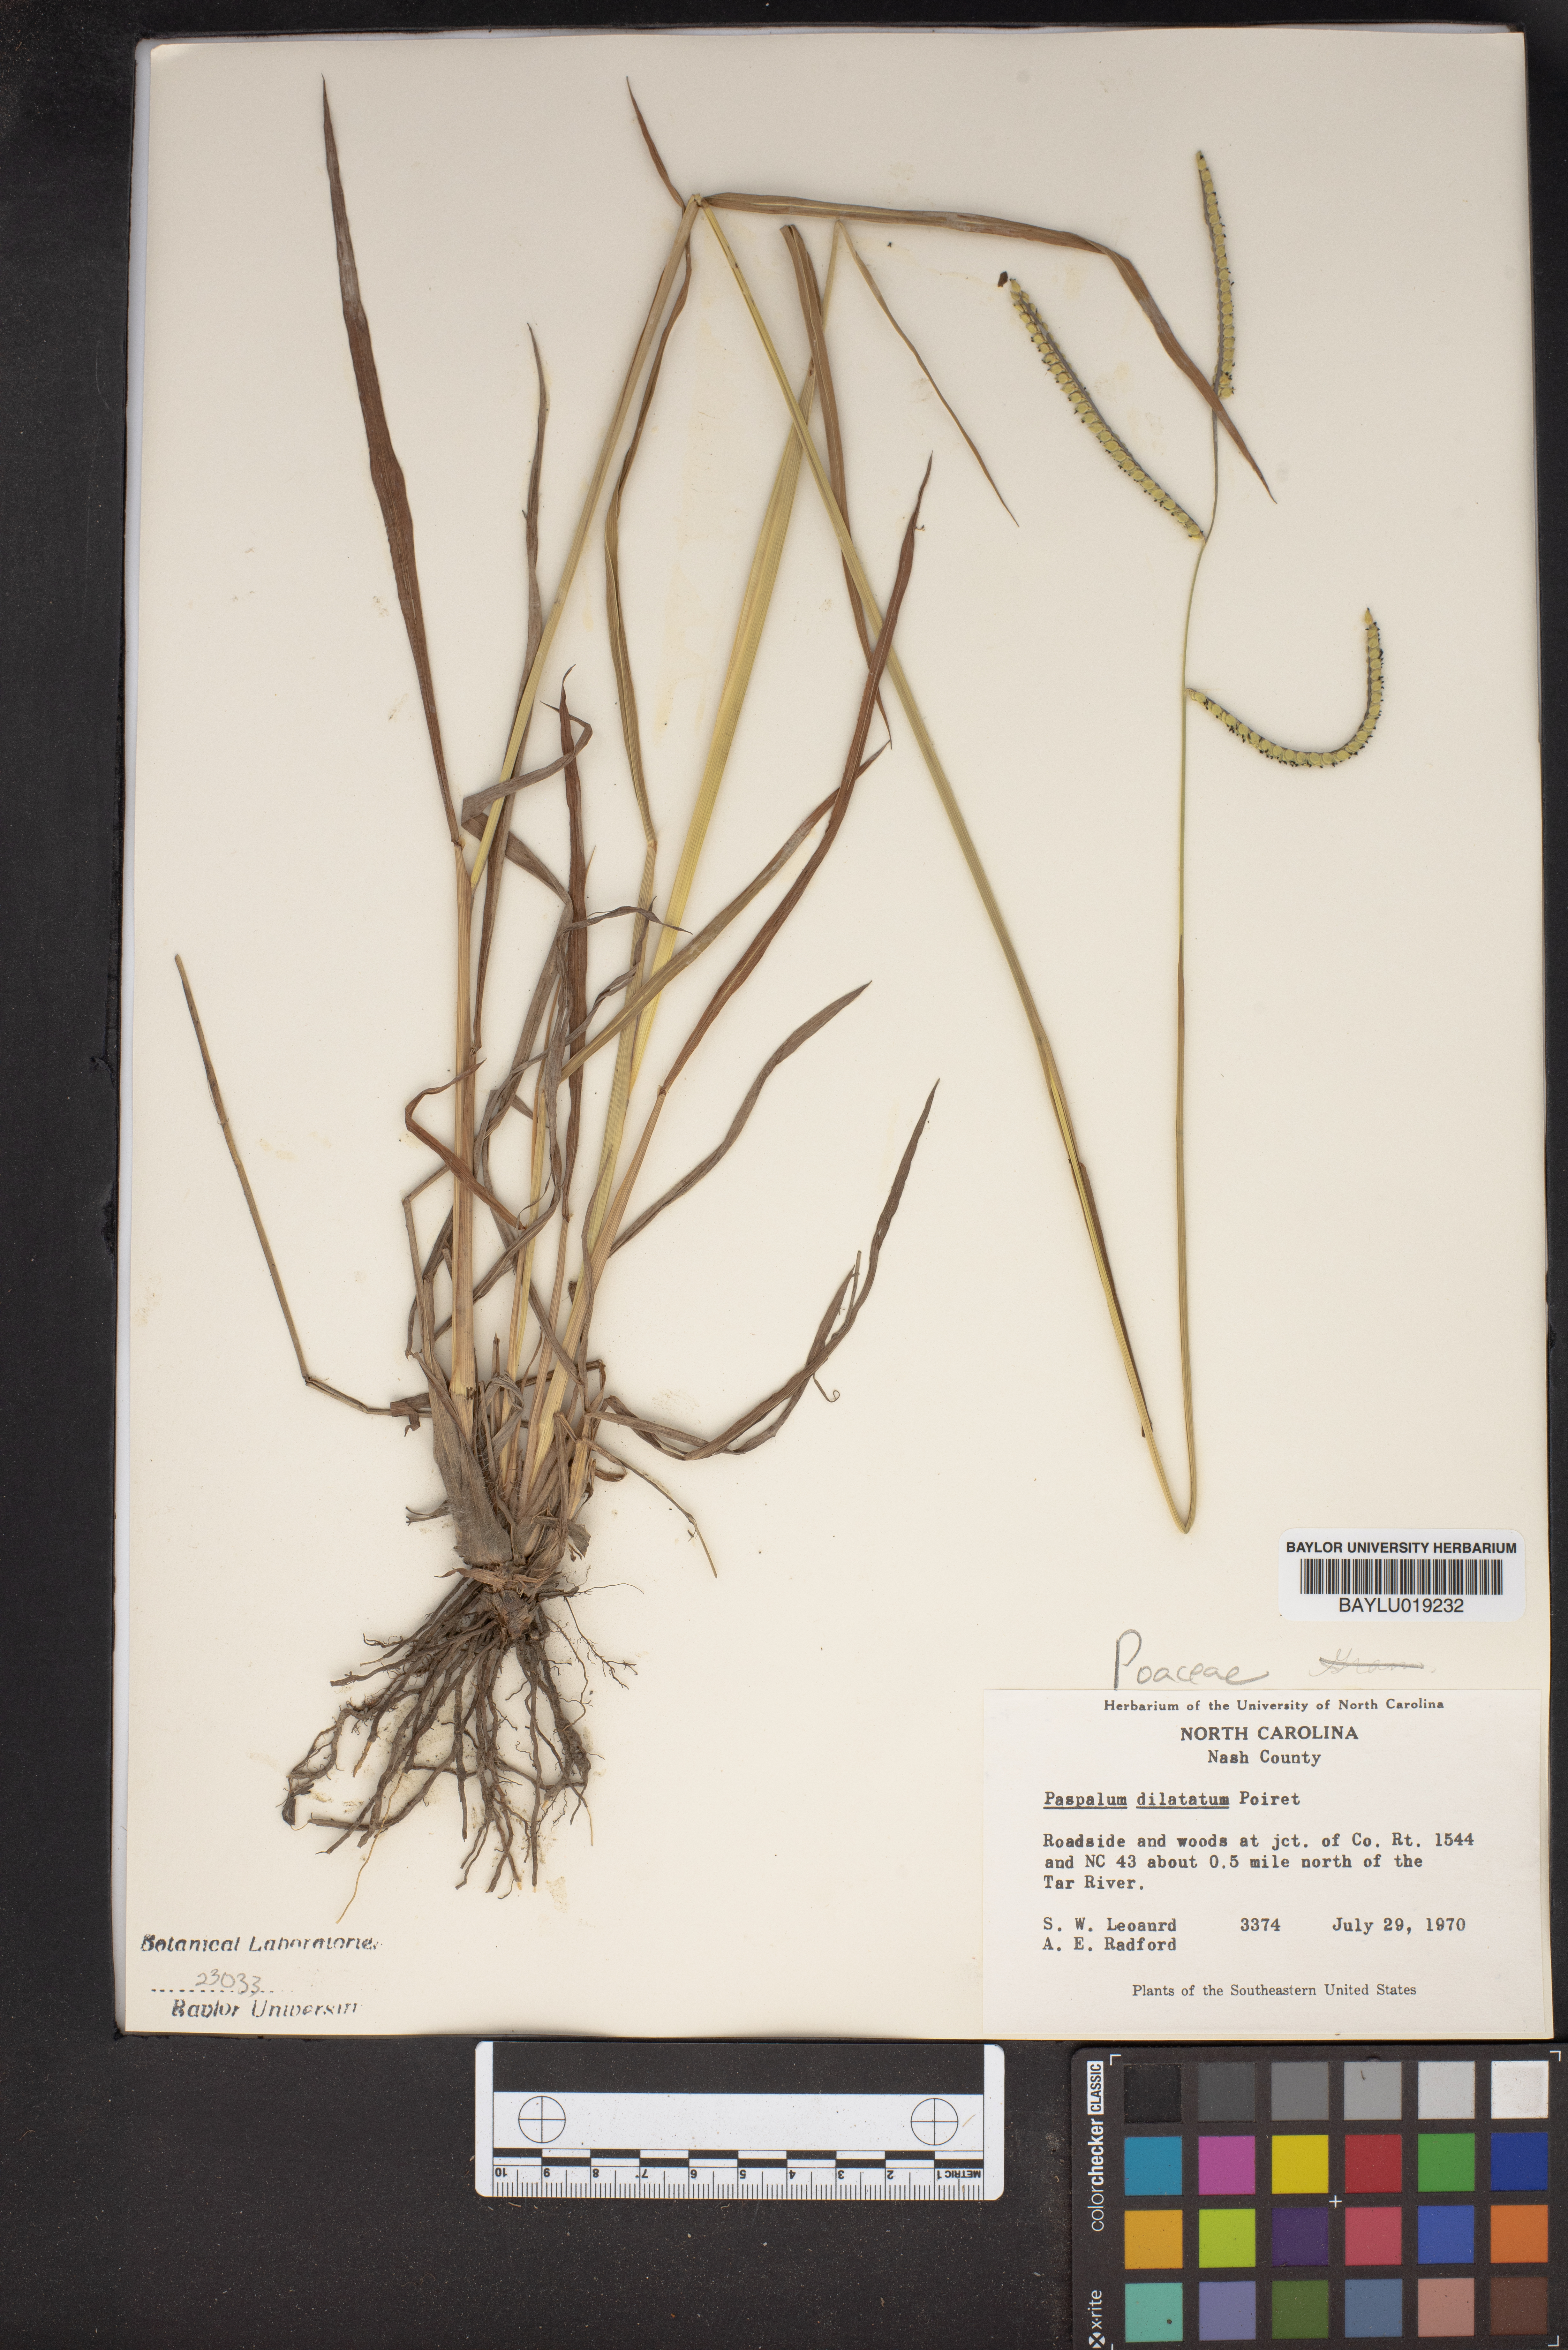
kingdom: Plantae
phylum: Tracheophyta
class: Liliopsida
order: Poales
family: Poaceae
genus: Paspalum
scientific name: Paspalum dilatatum
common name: Dallisgrass
